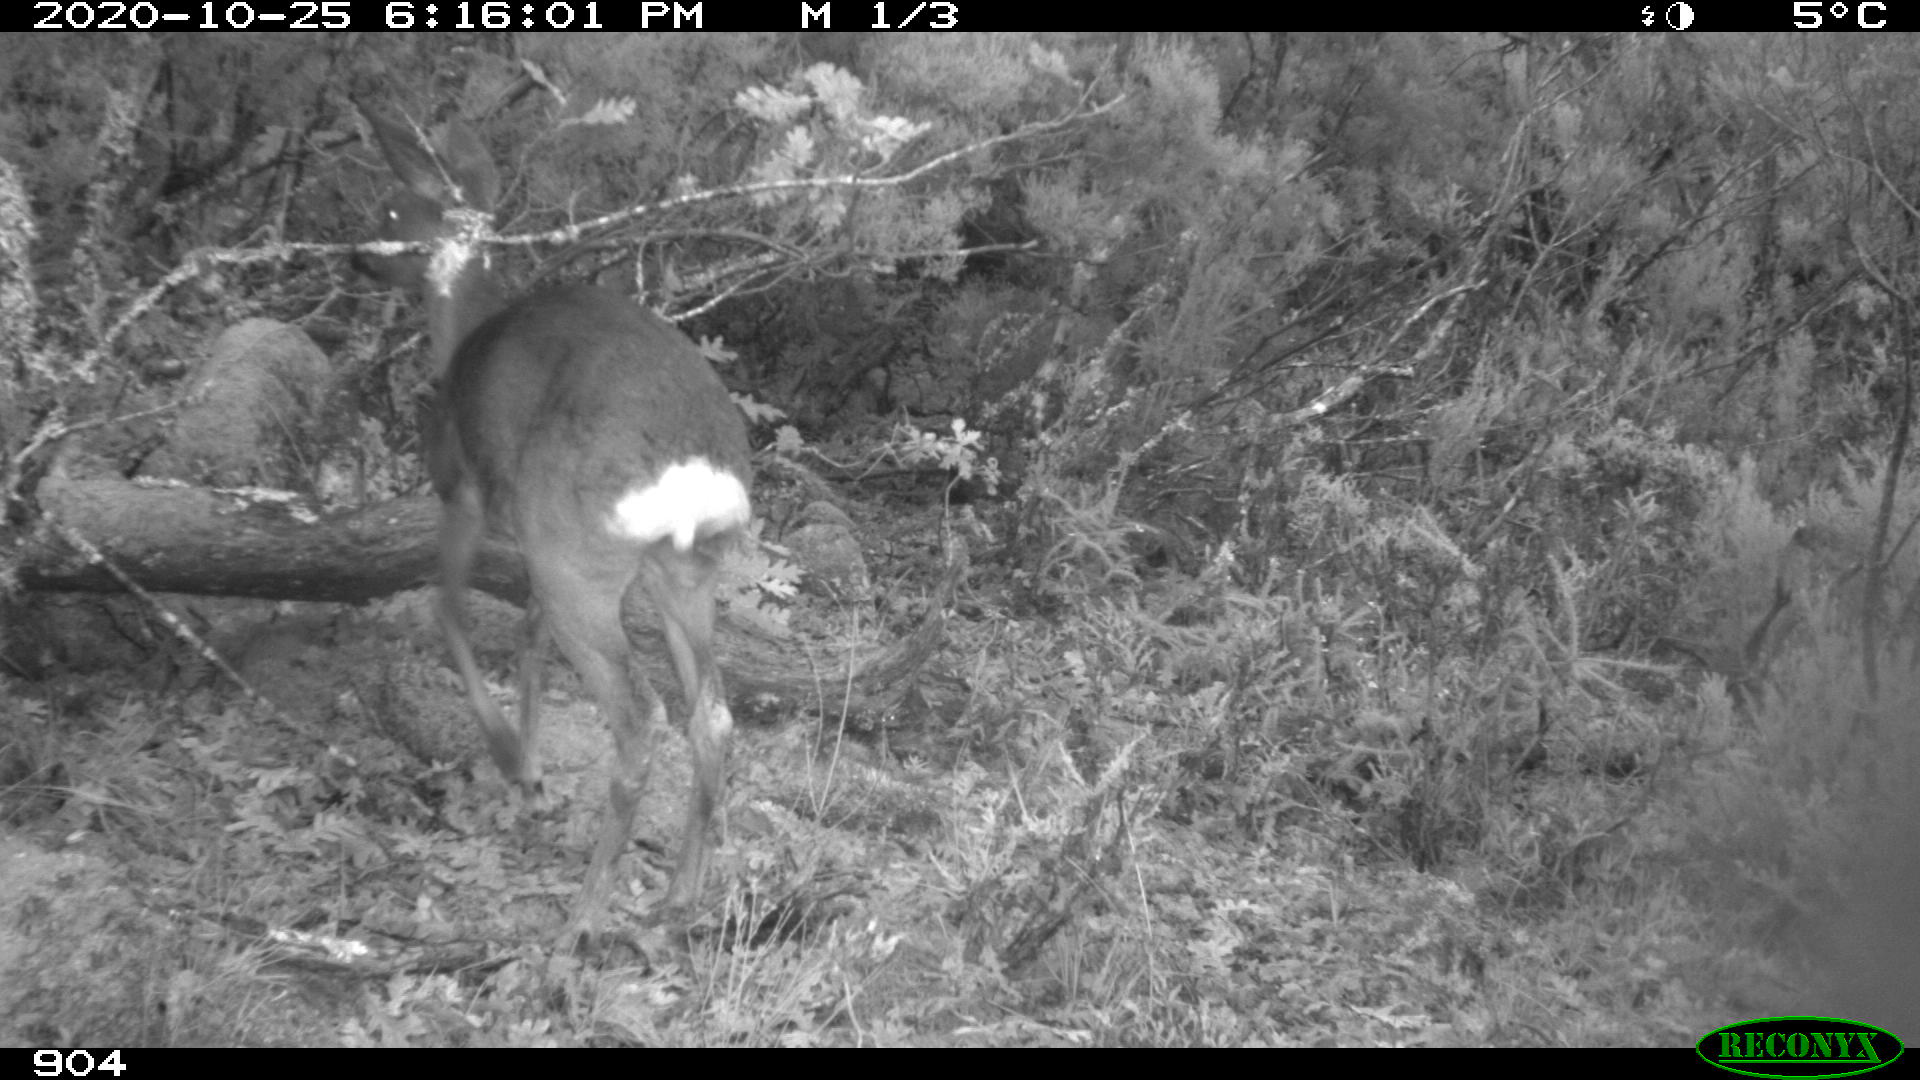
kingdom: Animalia
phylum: Chordata
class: Mammalia
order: Artiodactyla
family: Cervidae
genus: Capreolus
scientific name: Capreolus capreolus
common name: Western roe deer
